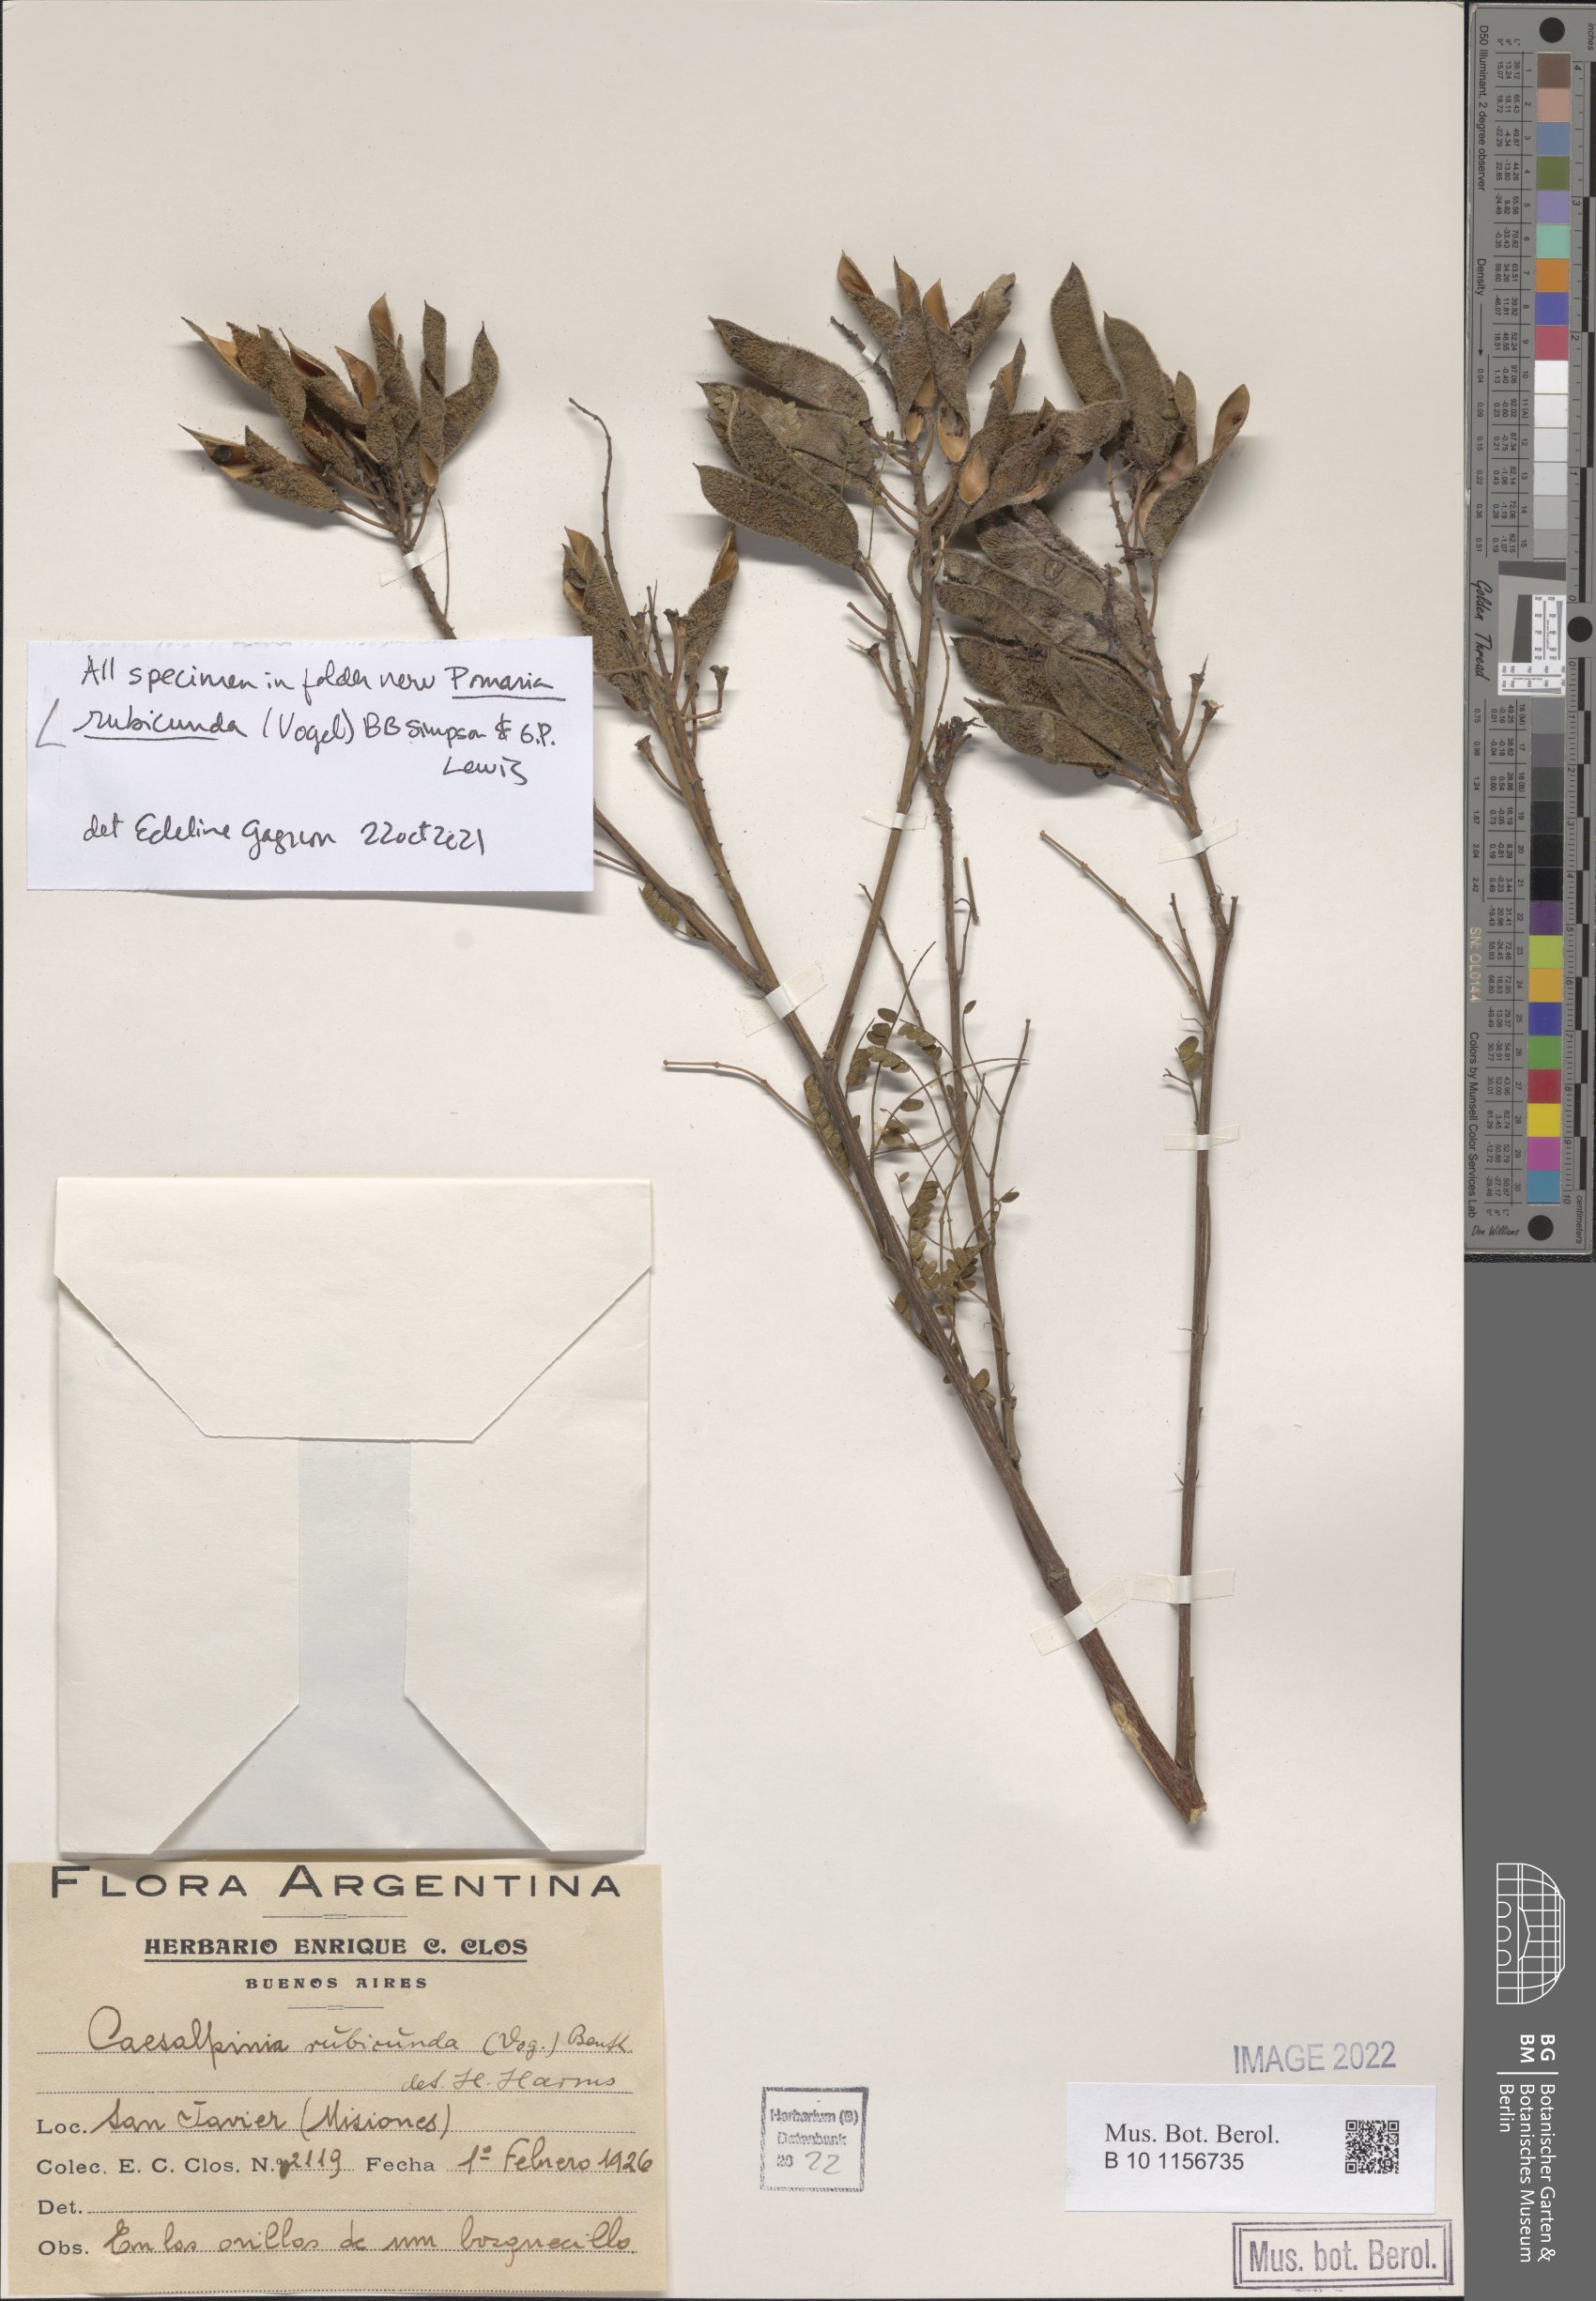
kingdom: Plantae
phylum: Tracheophyta
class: Magnoliopsida
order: Fabales
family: Fabaceae
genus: Pomaria
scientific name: Pomaria rubicunda
